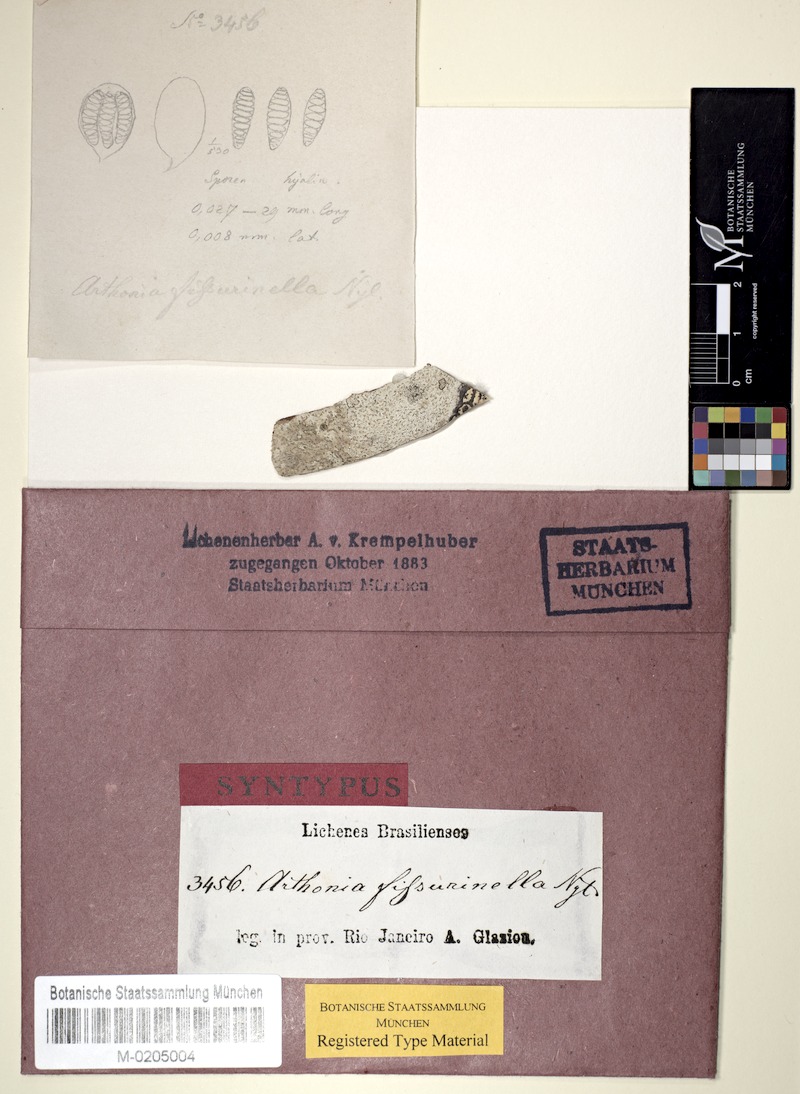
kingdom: Fungi
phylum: Ascomycota
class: Arthoniomycetes
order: Arthoniales
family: Arthoniaceae
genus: Arthonia
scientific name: Arthonia fissurina
